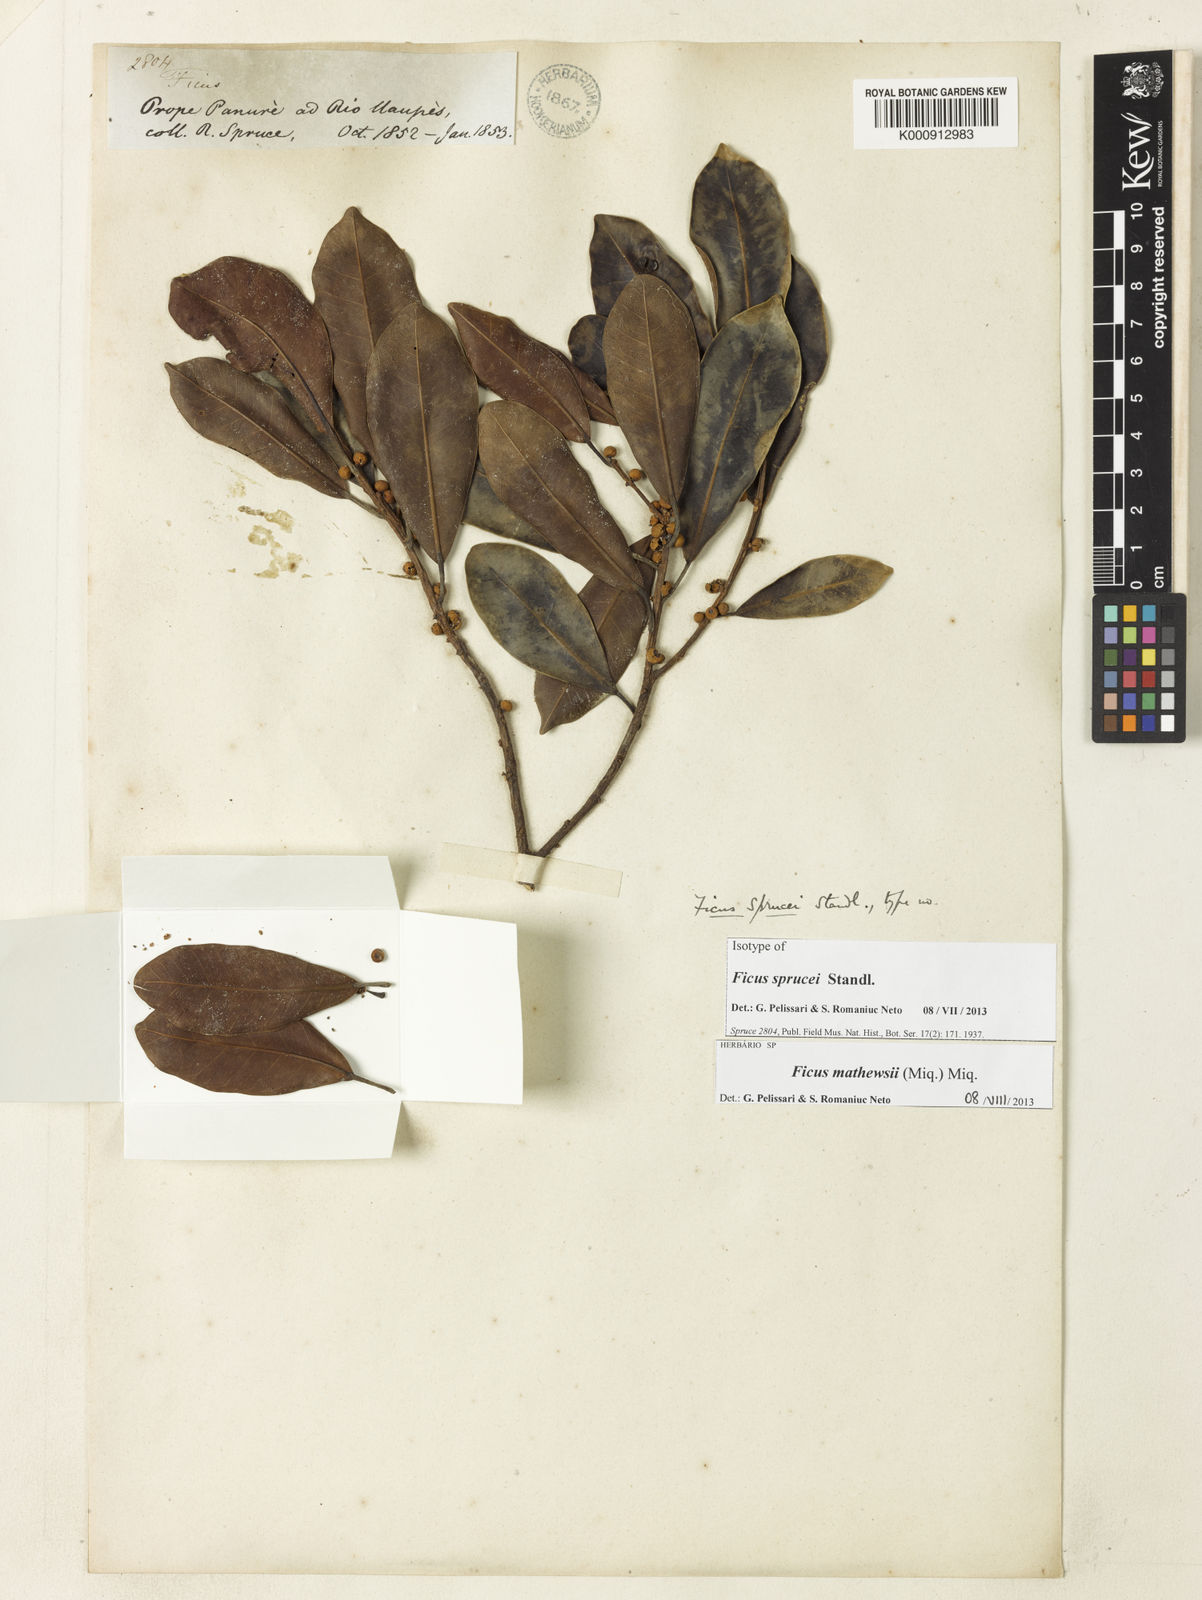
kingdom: Plantae
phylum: Tracheophyta
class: Magnoliopsida
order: Rosales
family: Moraceae
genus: Ficus
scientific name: Ficus mathewsii
